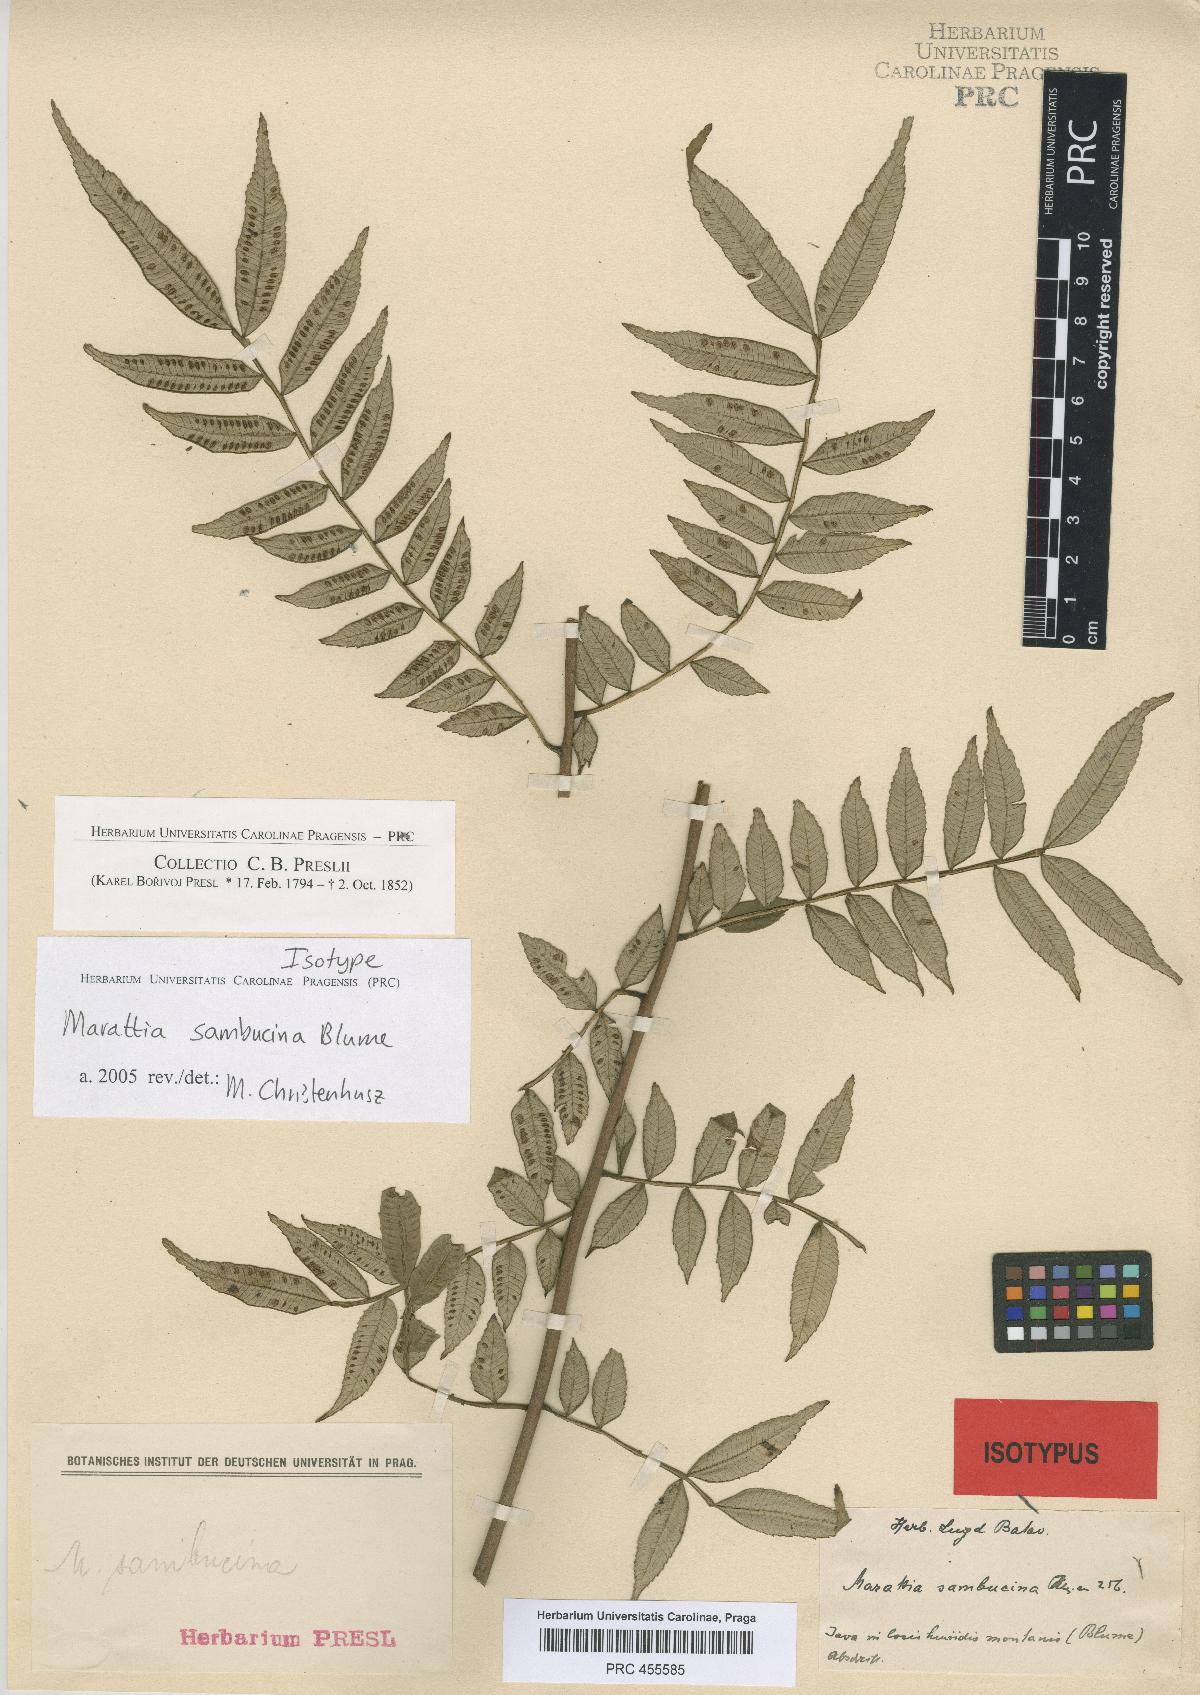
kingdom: Plantae
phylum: Tracheophyta
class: Polypodiopsida
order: Marattiales
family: Marattiaceae
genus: Ptisana
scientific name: Ptisana sambucina
